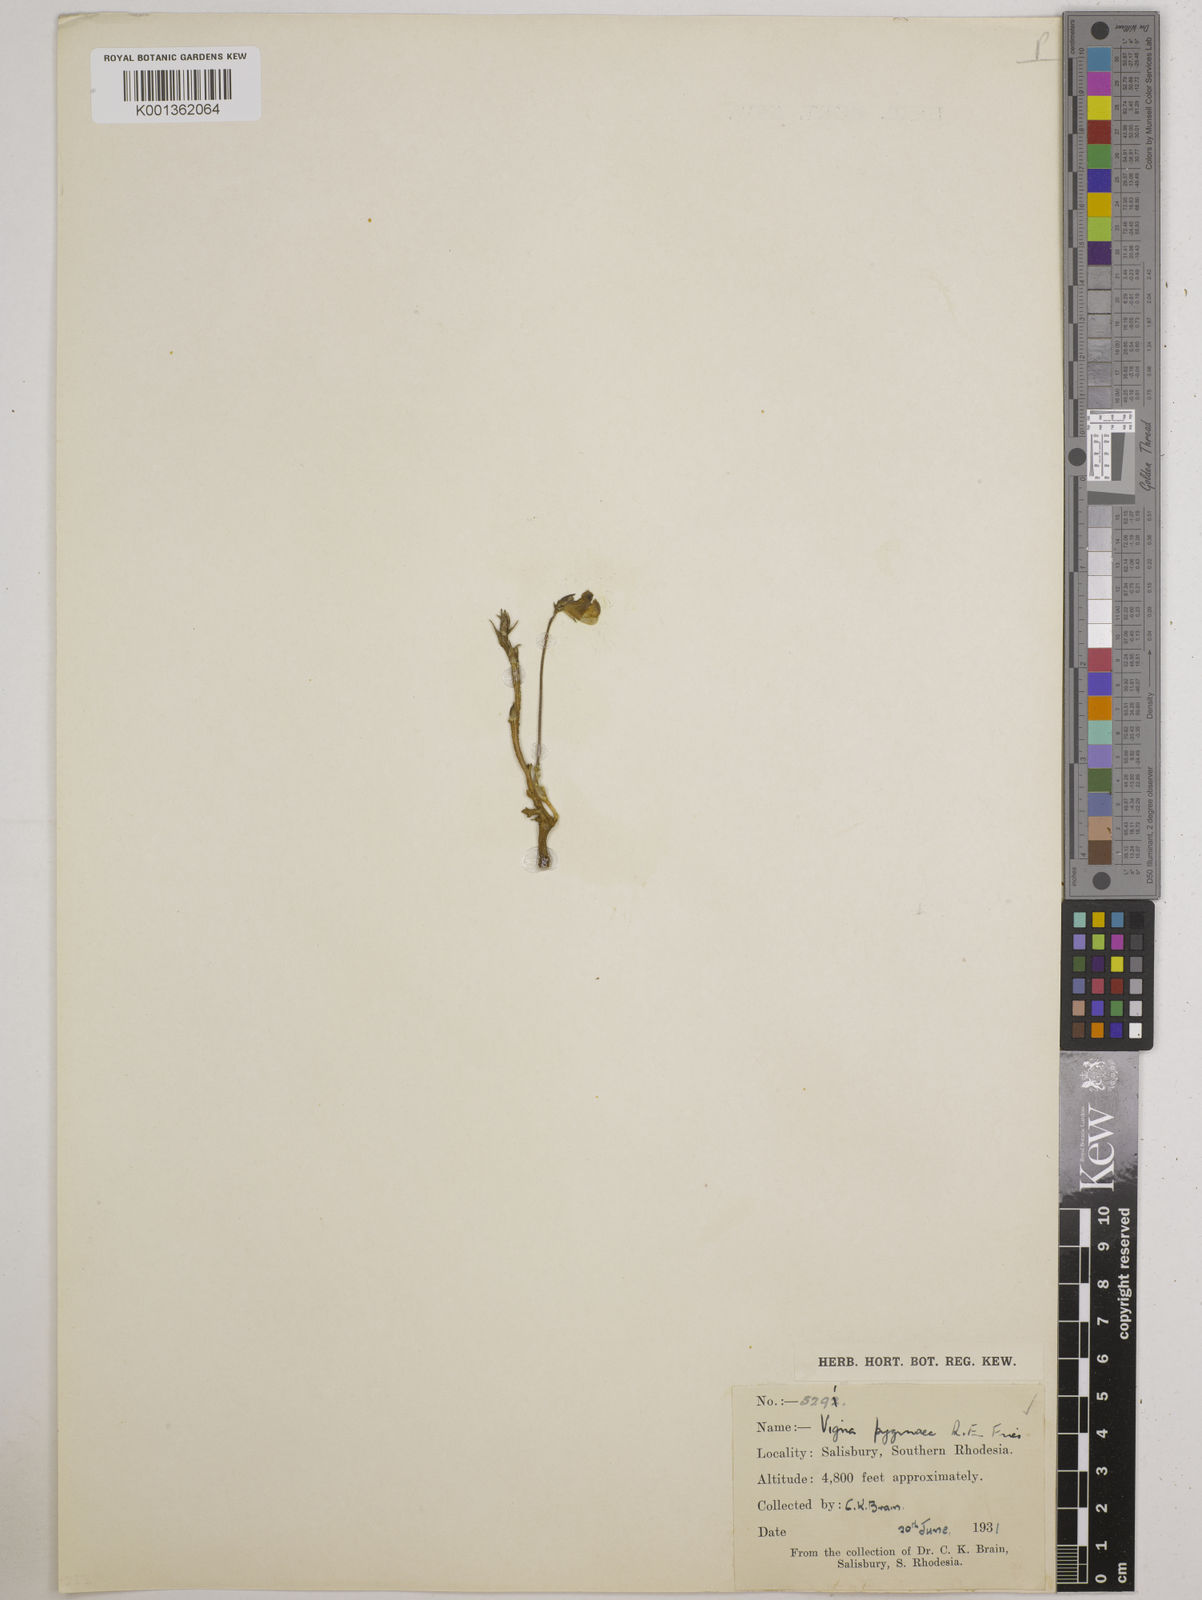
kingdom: Plantae
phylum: Tracheophyta
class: Magnoliopsida
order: Fabales
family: Fabaceae
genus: Vigna
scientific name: Vigna pygmaea
